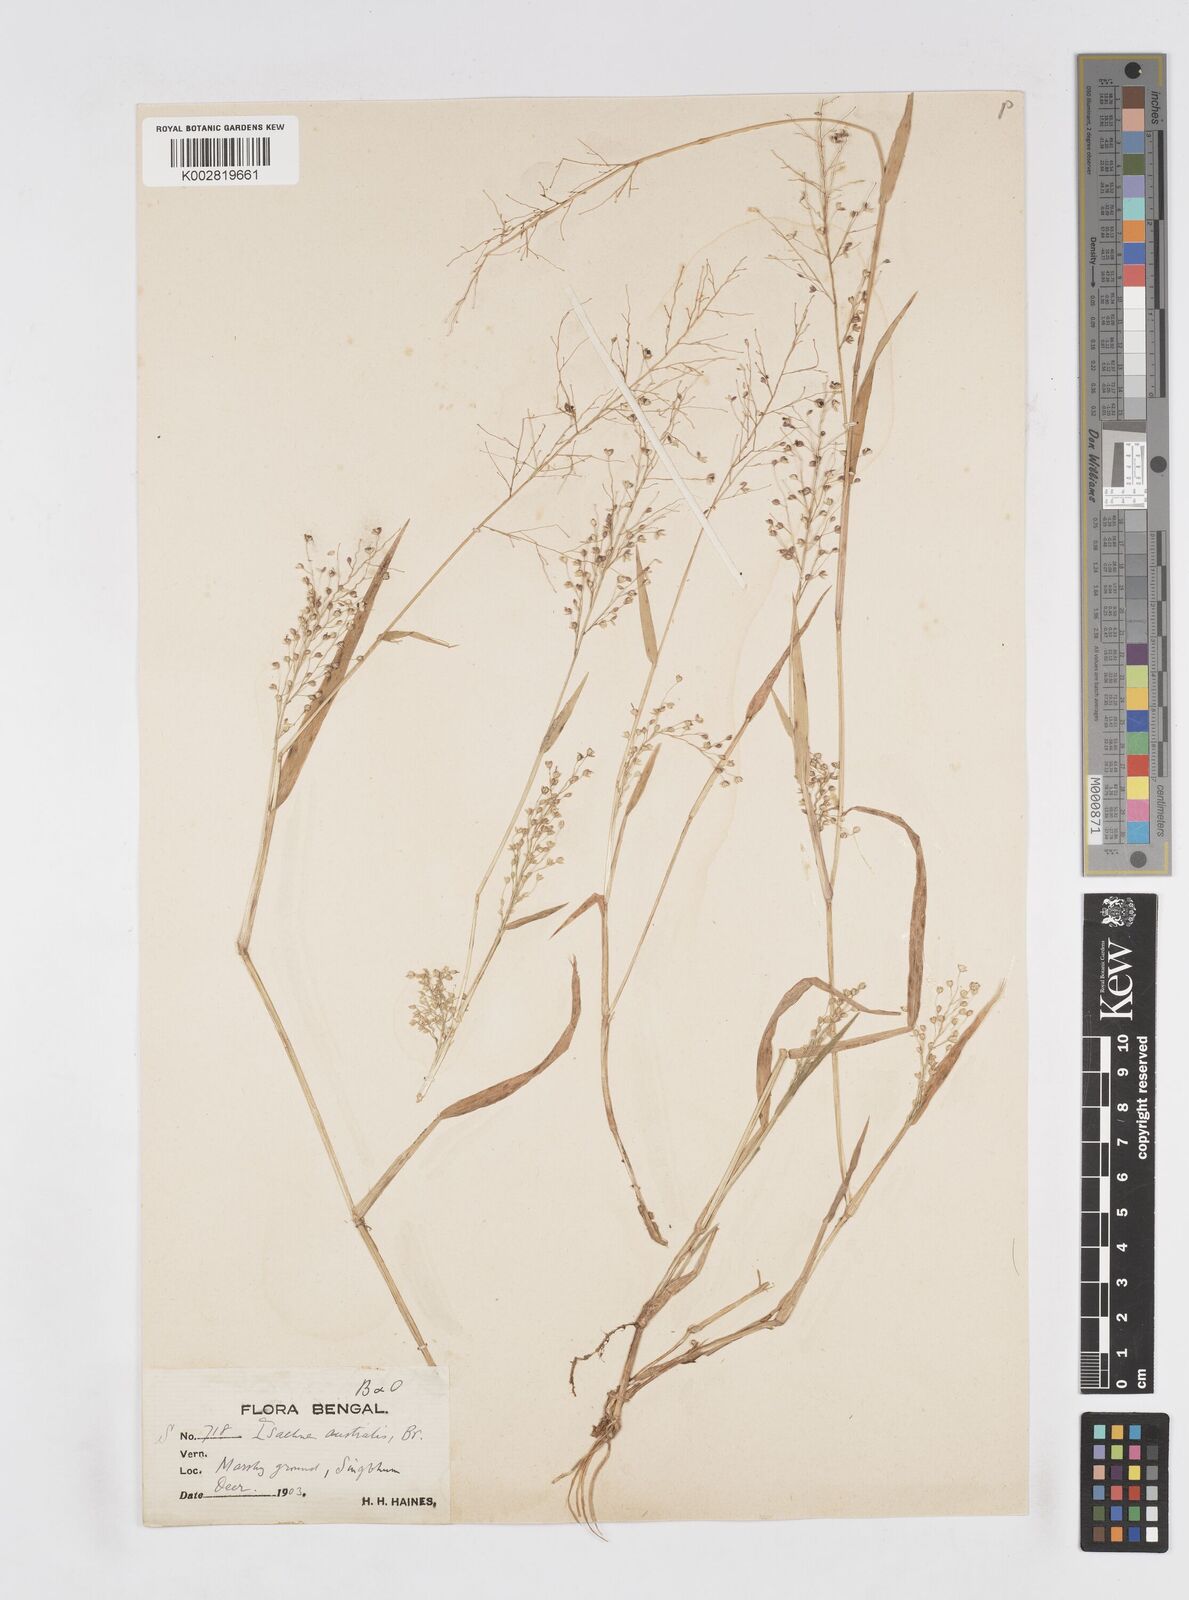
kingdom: Plantae
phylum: Tracheophyta
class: Liliopsida
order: Poales
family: Poaceae
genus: Isachne
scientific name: Isachne globosa
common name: Swamp millet
